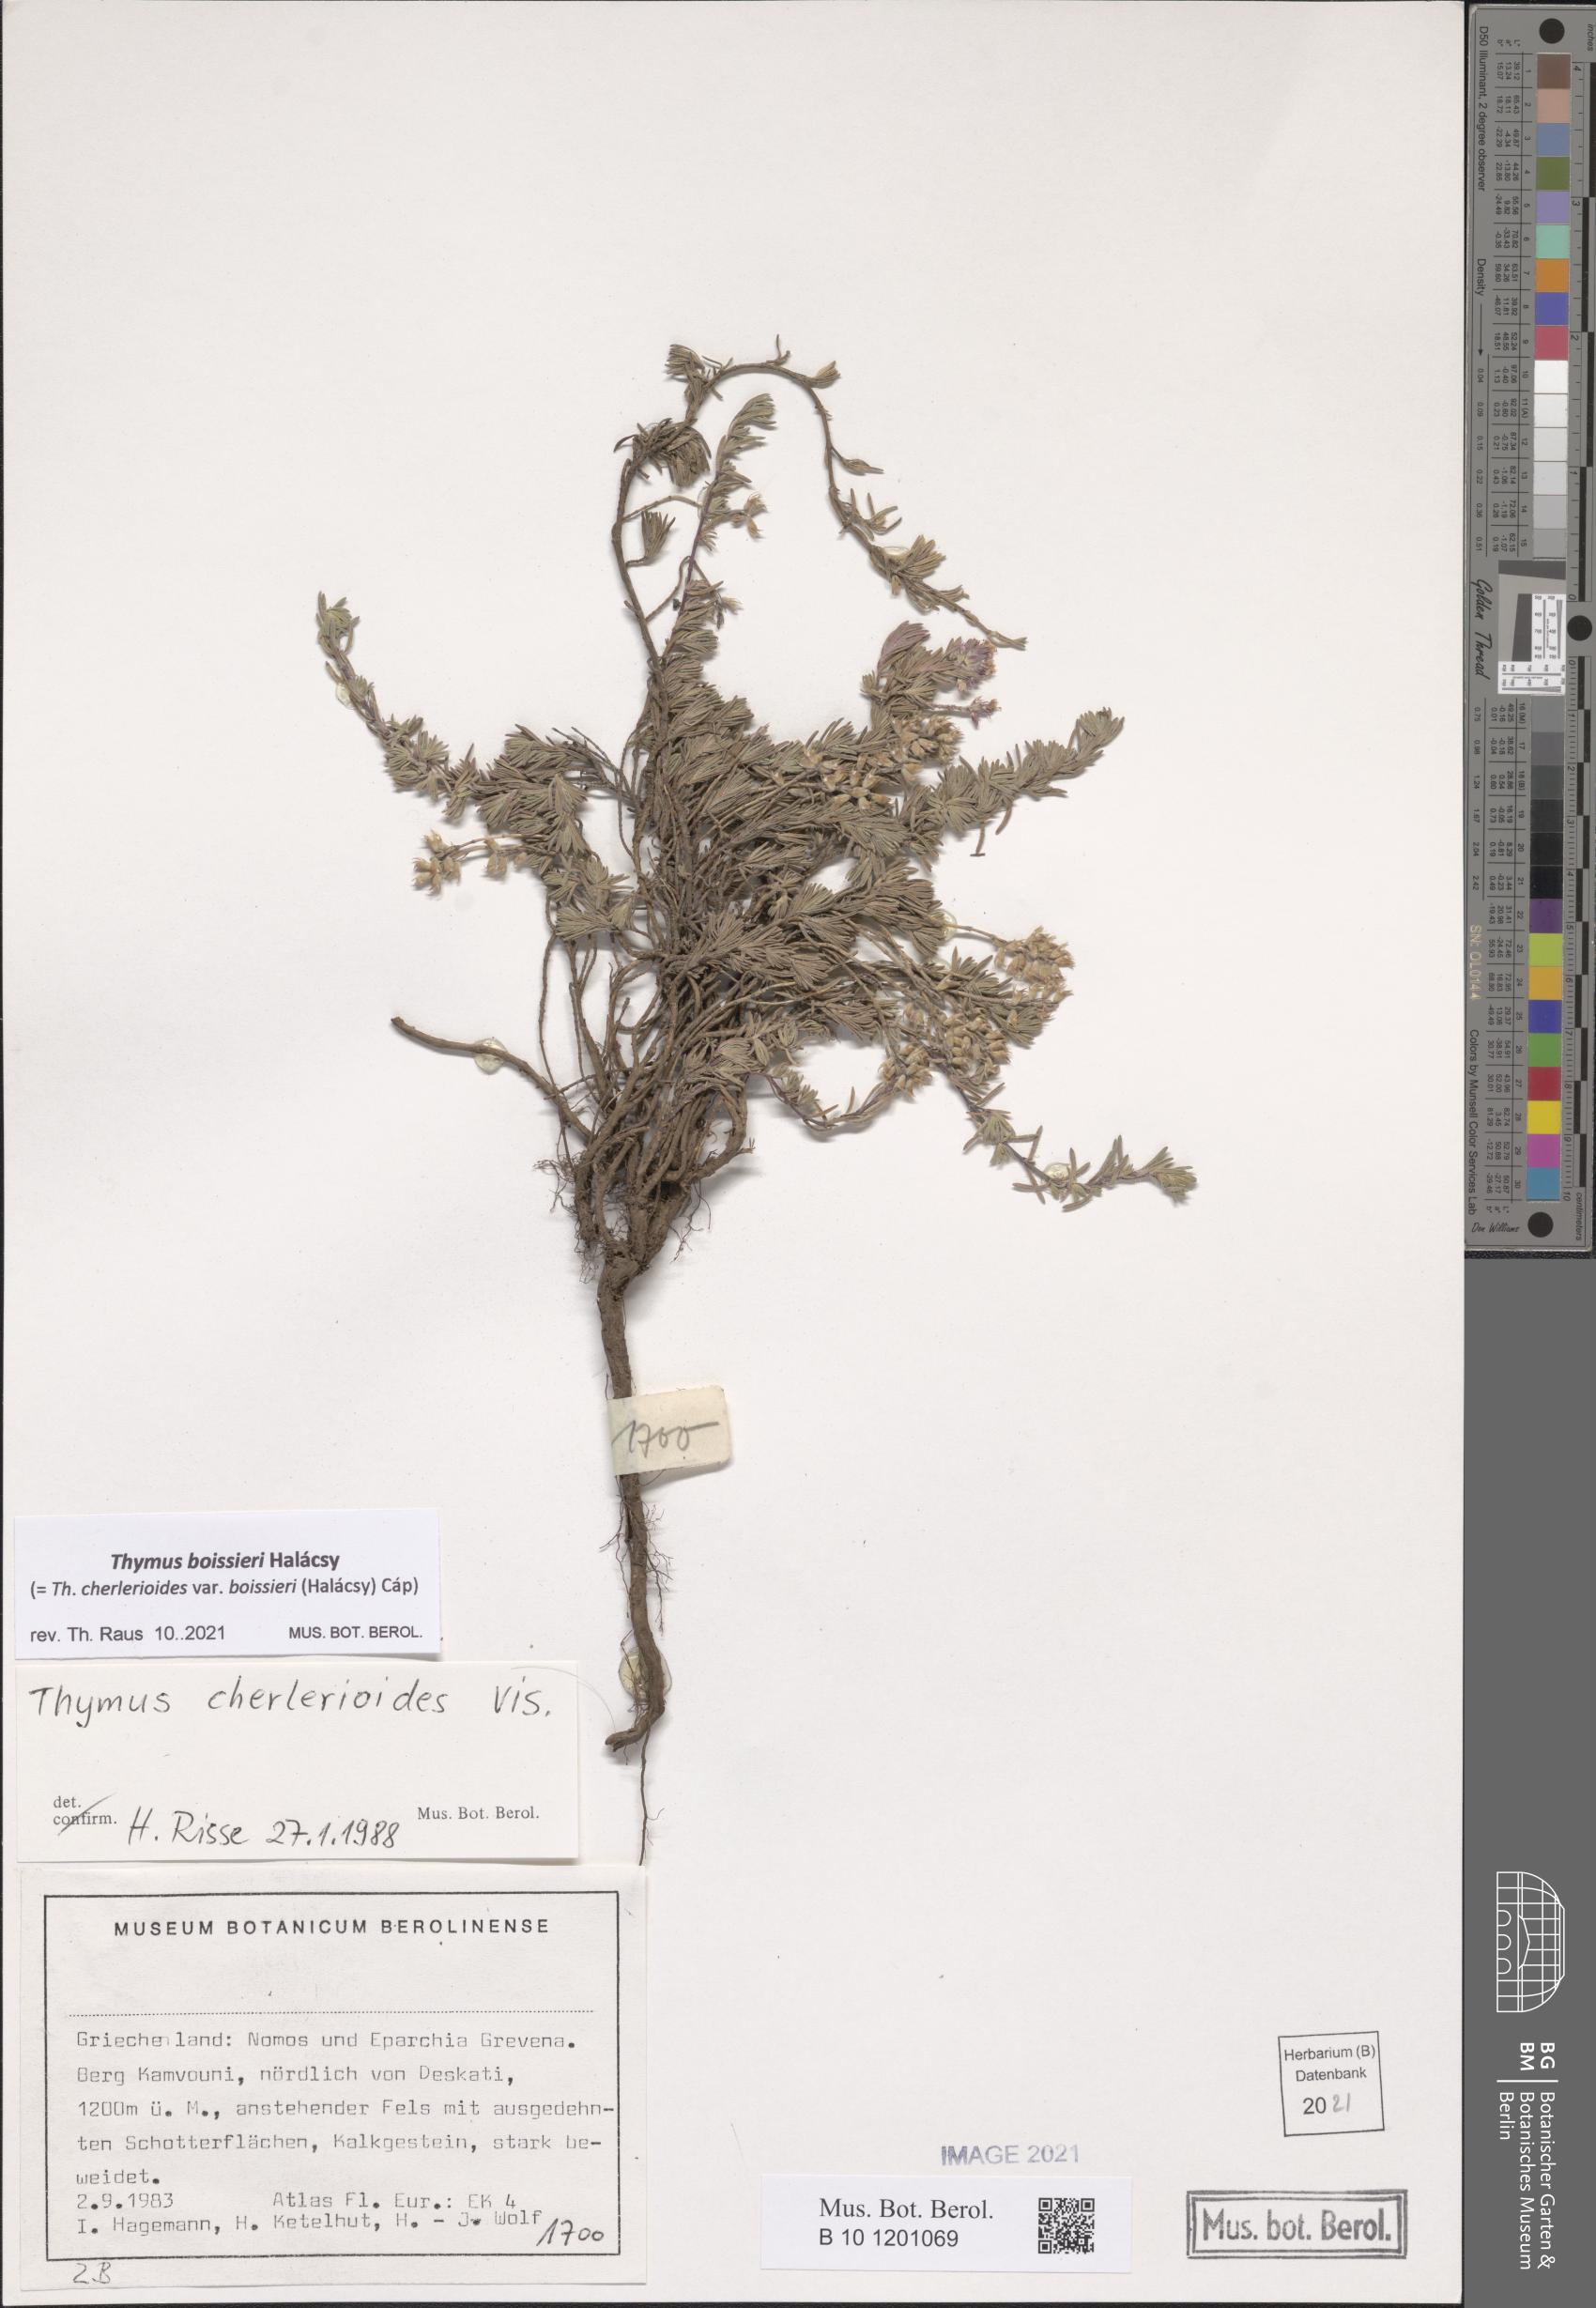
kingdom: Plantae
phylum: Tracheophyta
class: Magnoliopsida
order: Lamiales
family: Lamiaceae
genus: Thymus
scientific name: Thymus boissieri
